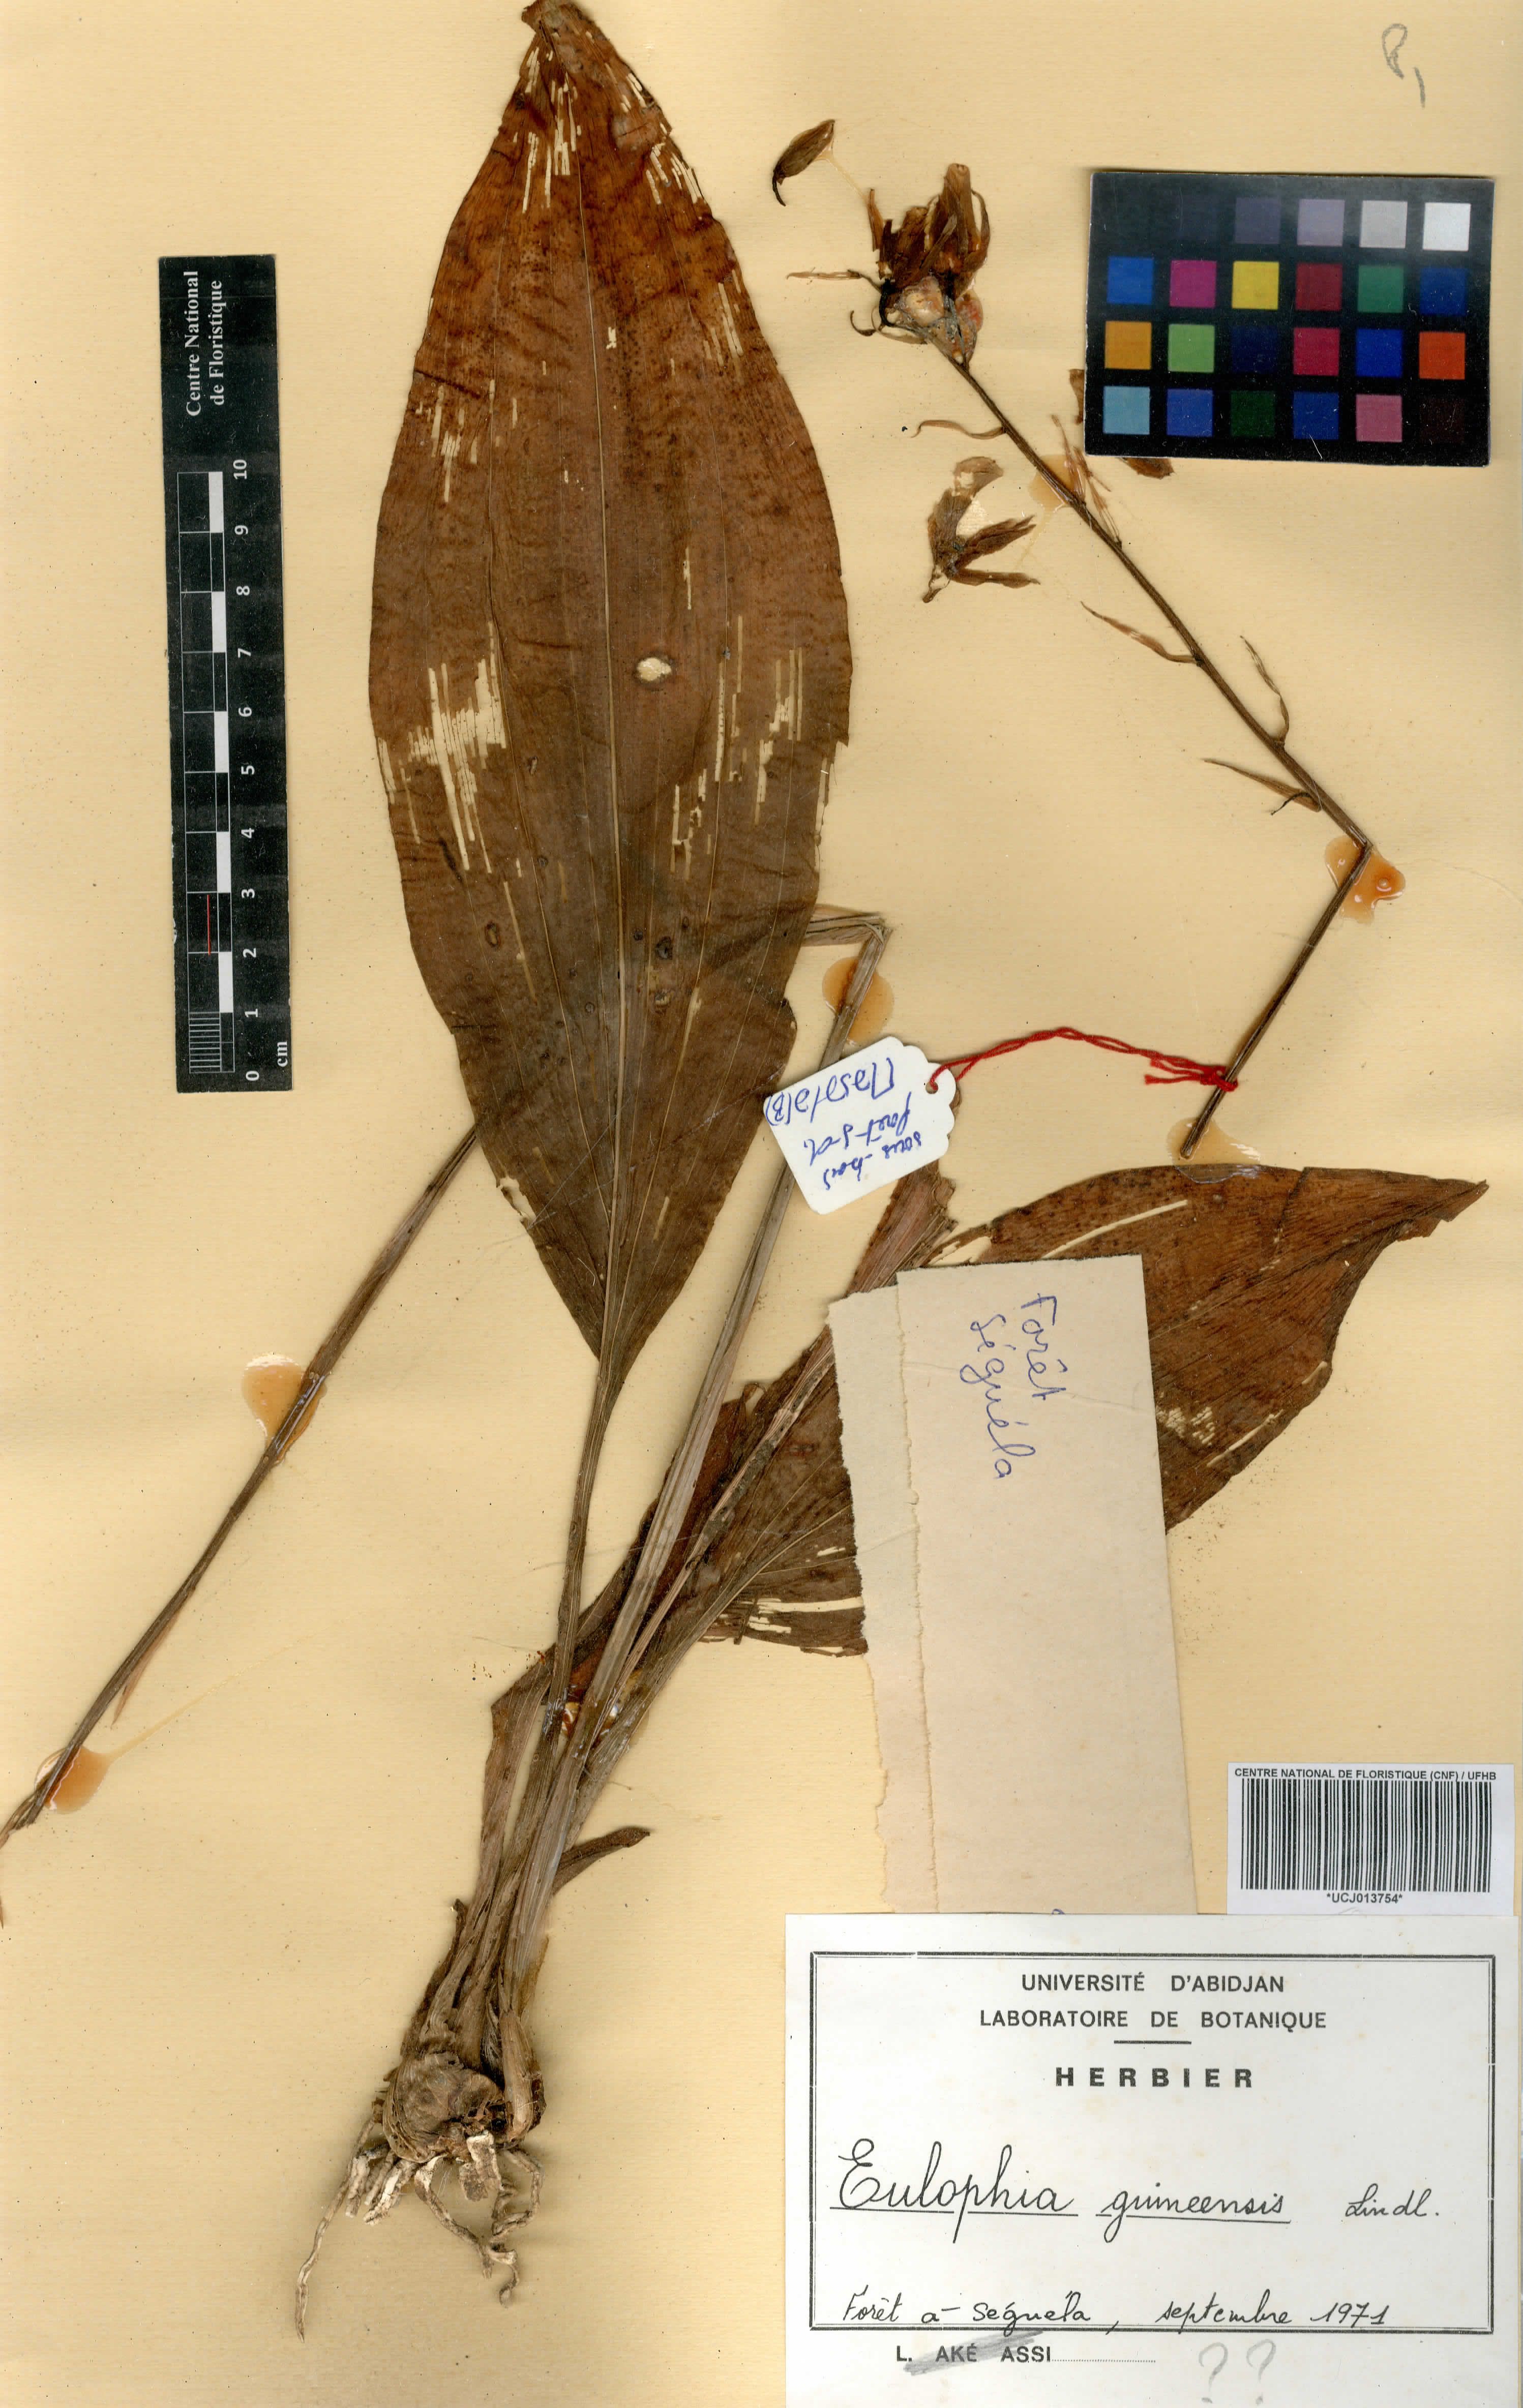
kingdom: Plantae
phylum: Tracheophyta
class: Liliopsida
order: Asparagales
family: Orchidaceae
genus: Eulophia
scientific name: Eulophia guineensis
